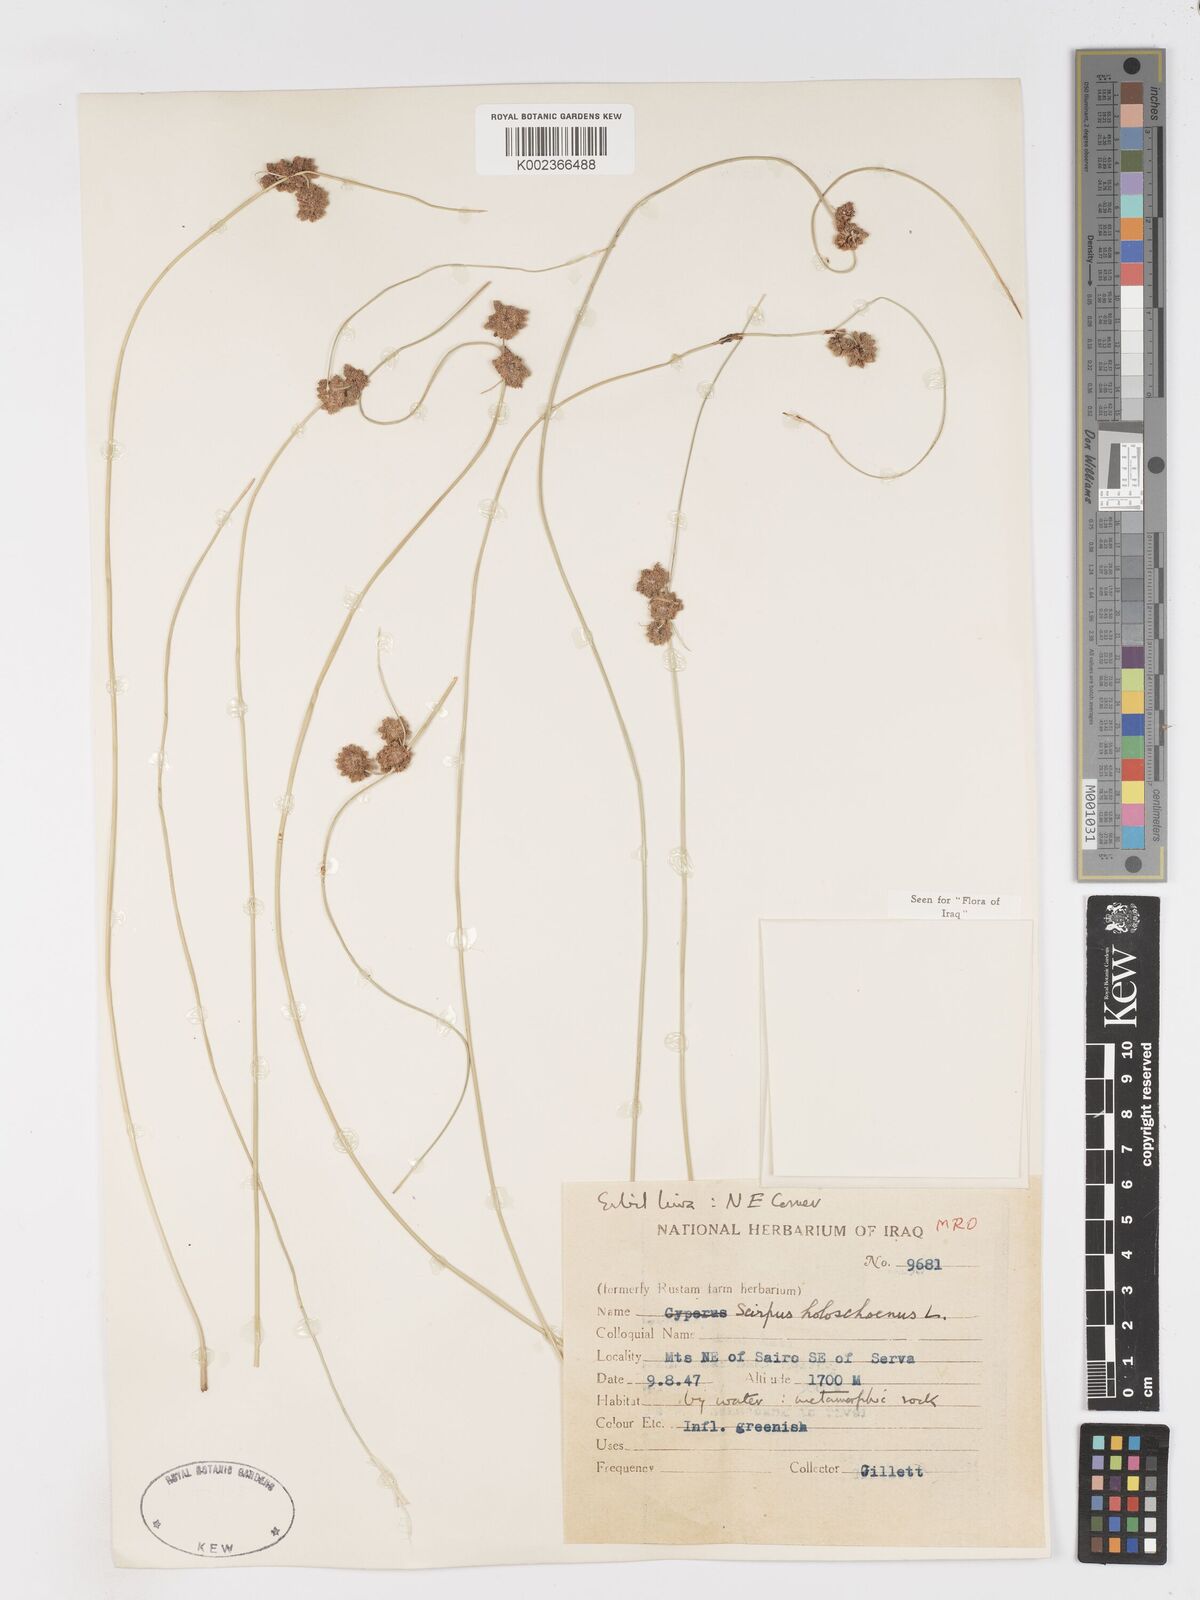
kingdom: Plantae
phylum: Tracheophyta
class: Liliopsida
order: Poales
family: Cyperaceae
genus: Scirpoides
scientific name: Scirpoides holoschoenus
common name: Round-headed club-rush
